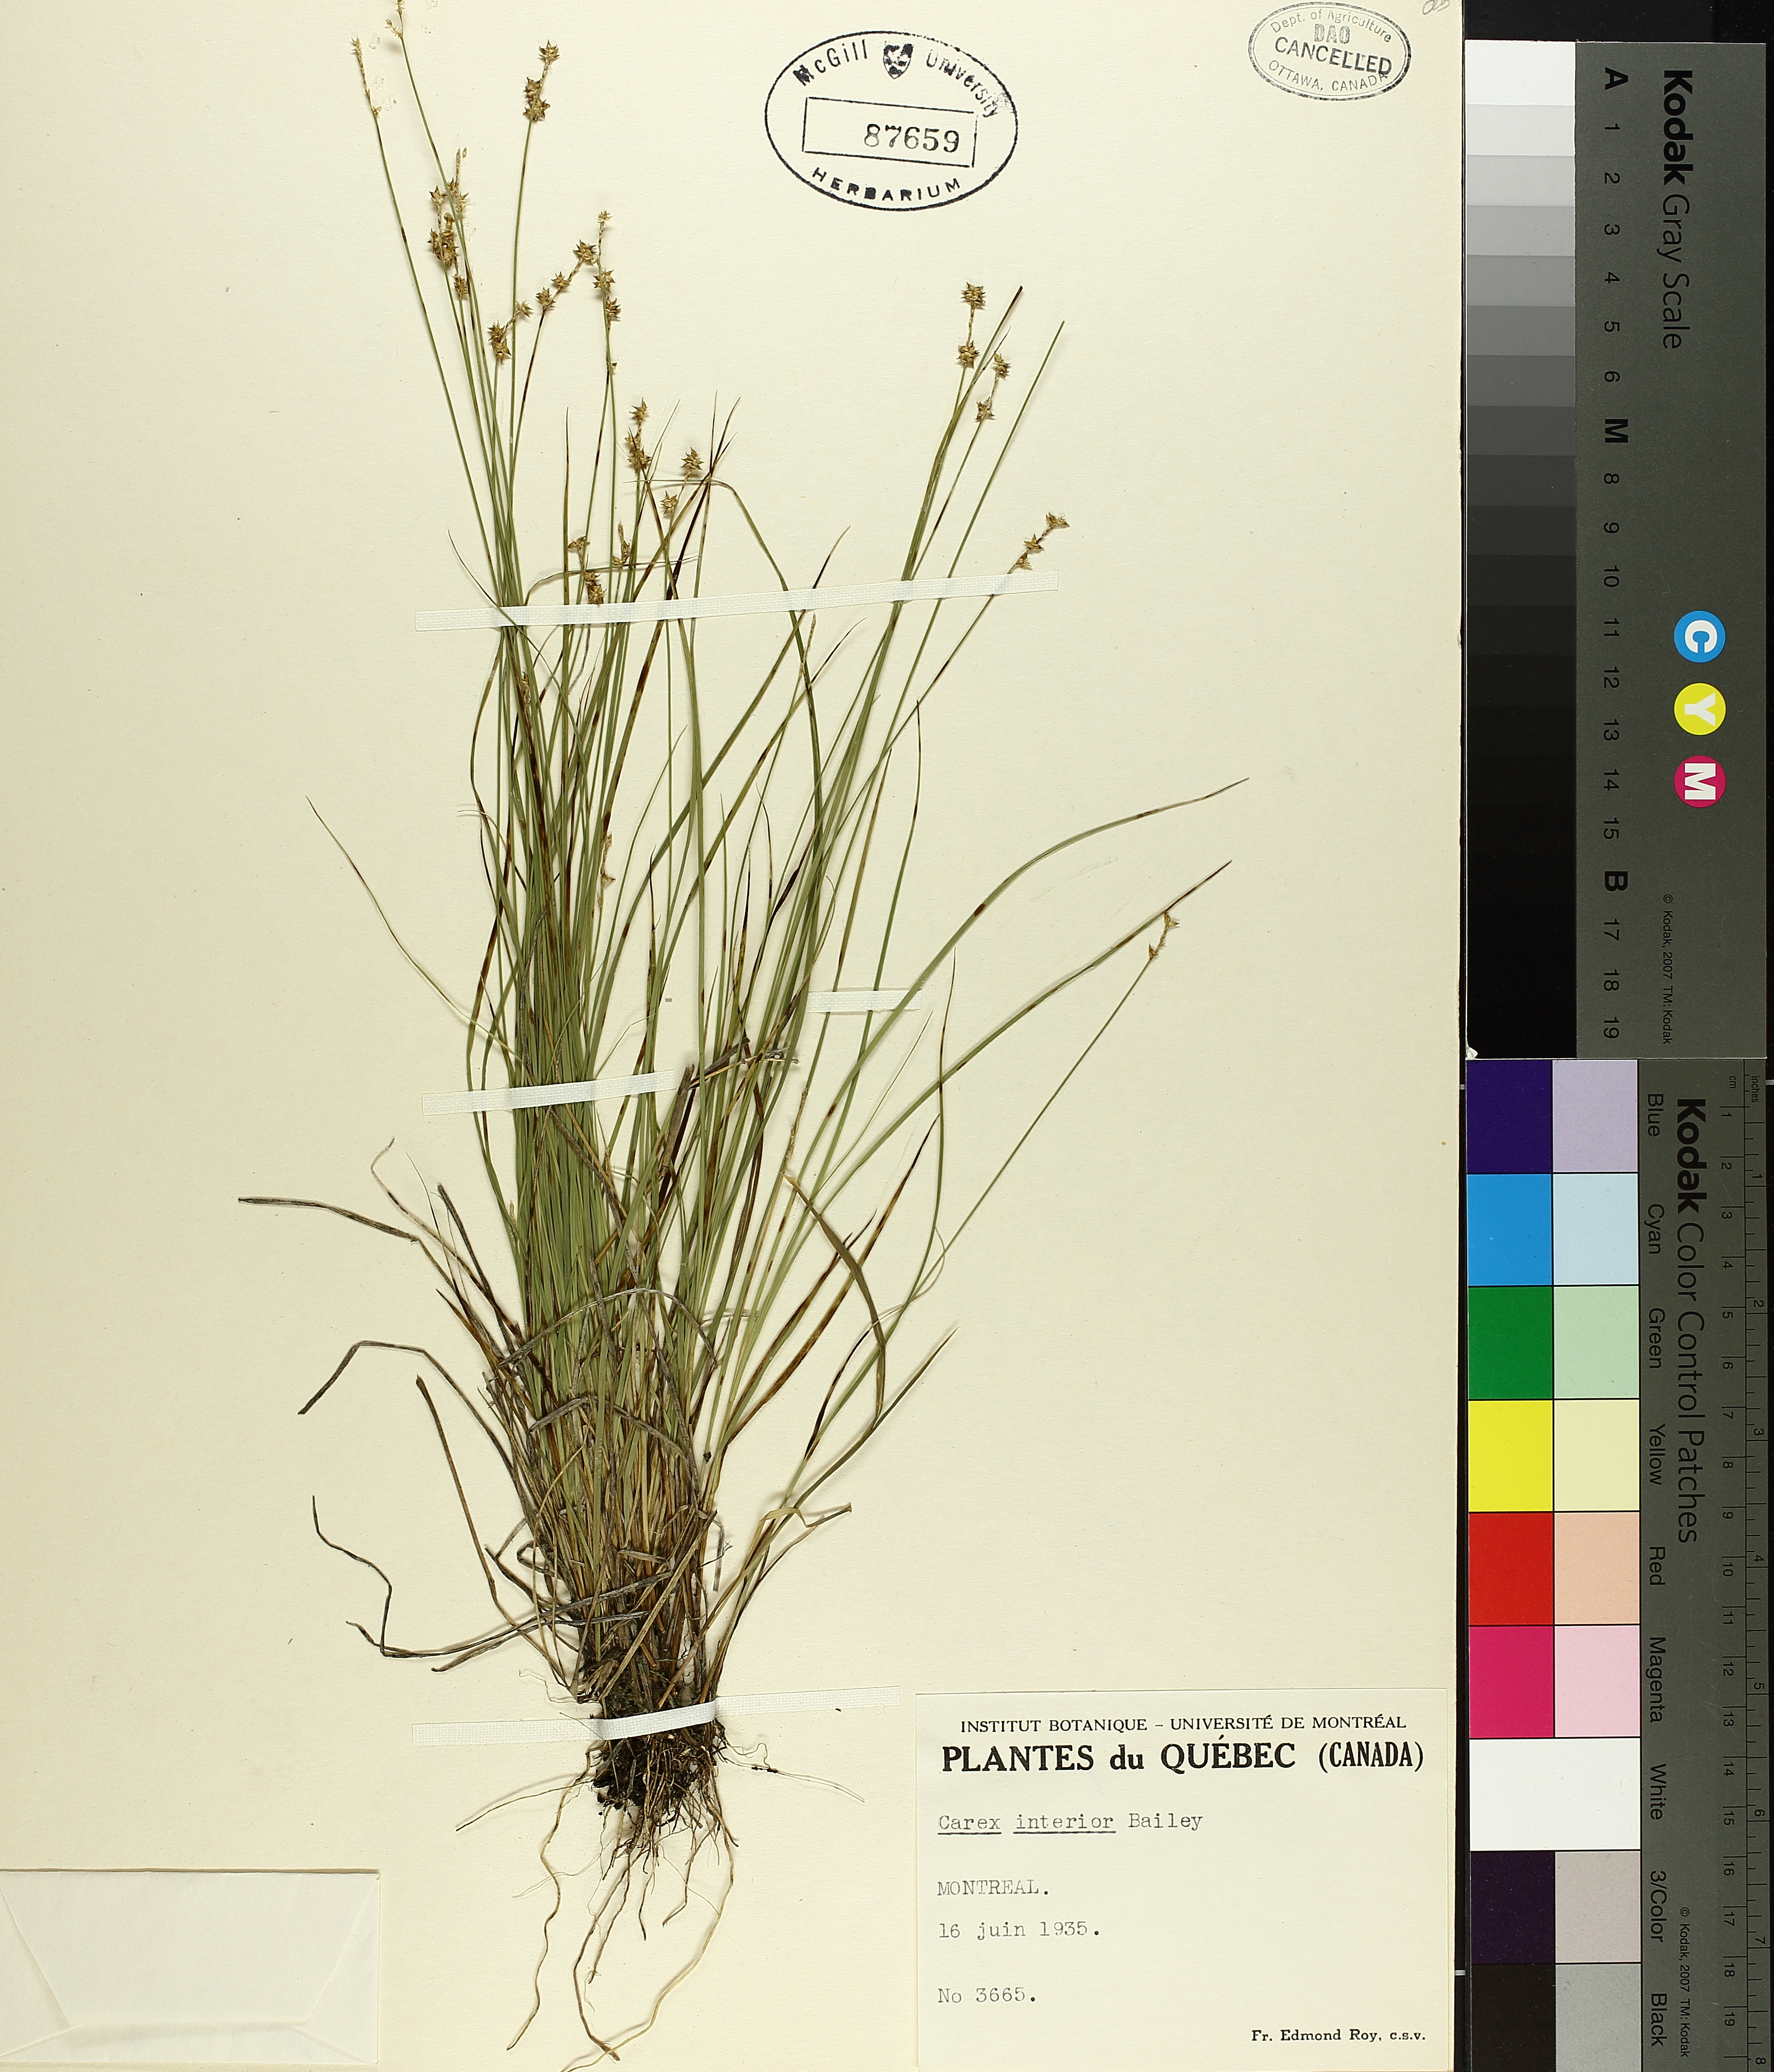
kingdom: Plantae
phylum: Tracheophyta
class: Liliopsida
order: Poales
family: Cyperaceae
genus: Carex
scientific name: Carex interior
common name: Inland sedge
